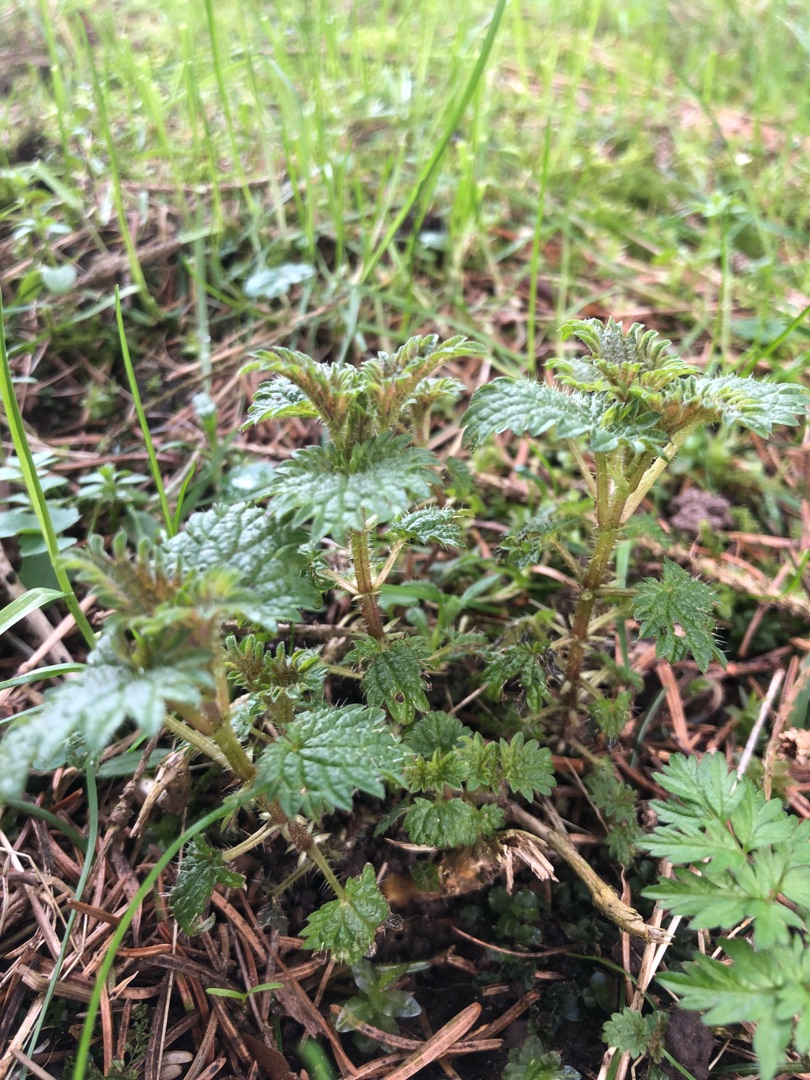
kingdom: Plantae
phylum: Tracheophyta
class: Magnoliopsida
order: Rosales
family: Urticaceae
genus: Urtica
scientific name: Urtica dioica
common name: Stor nælde
